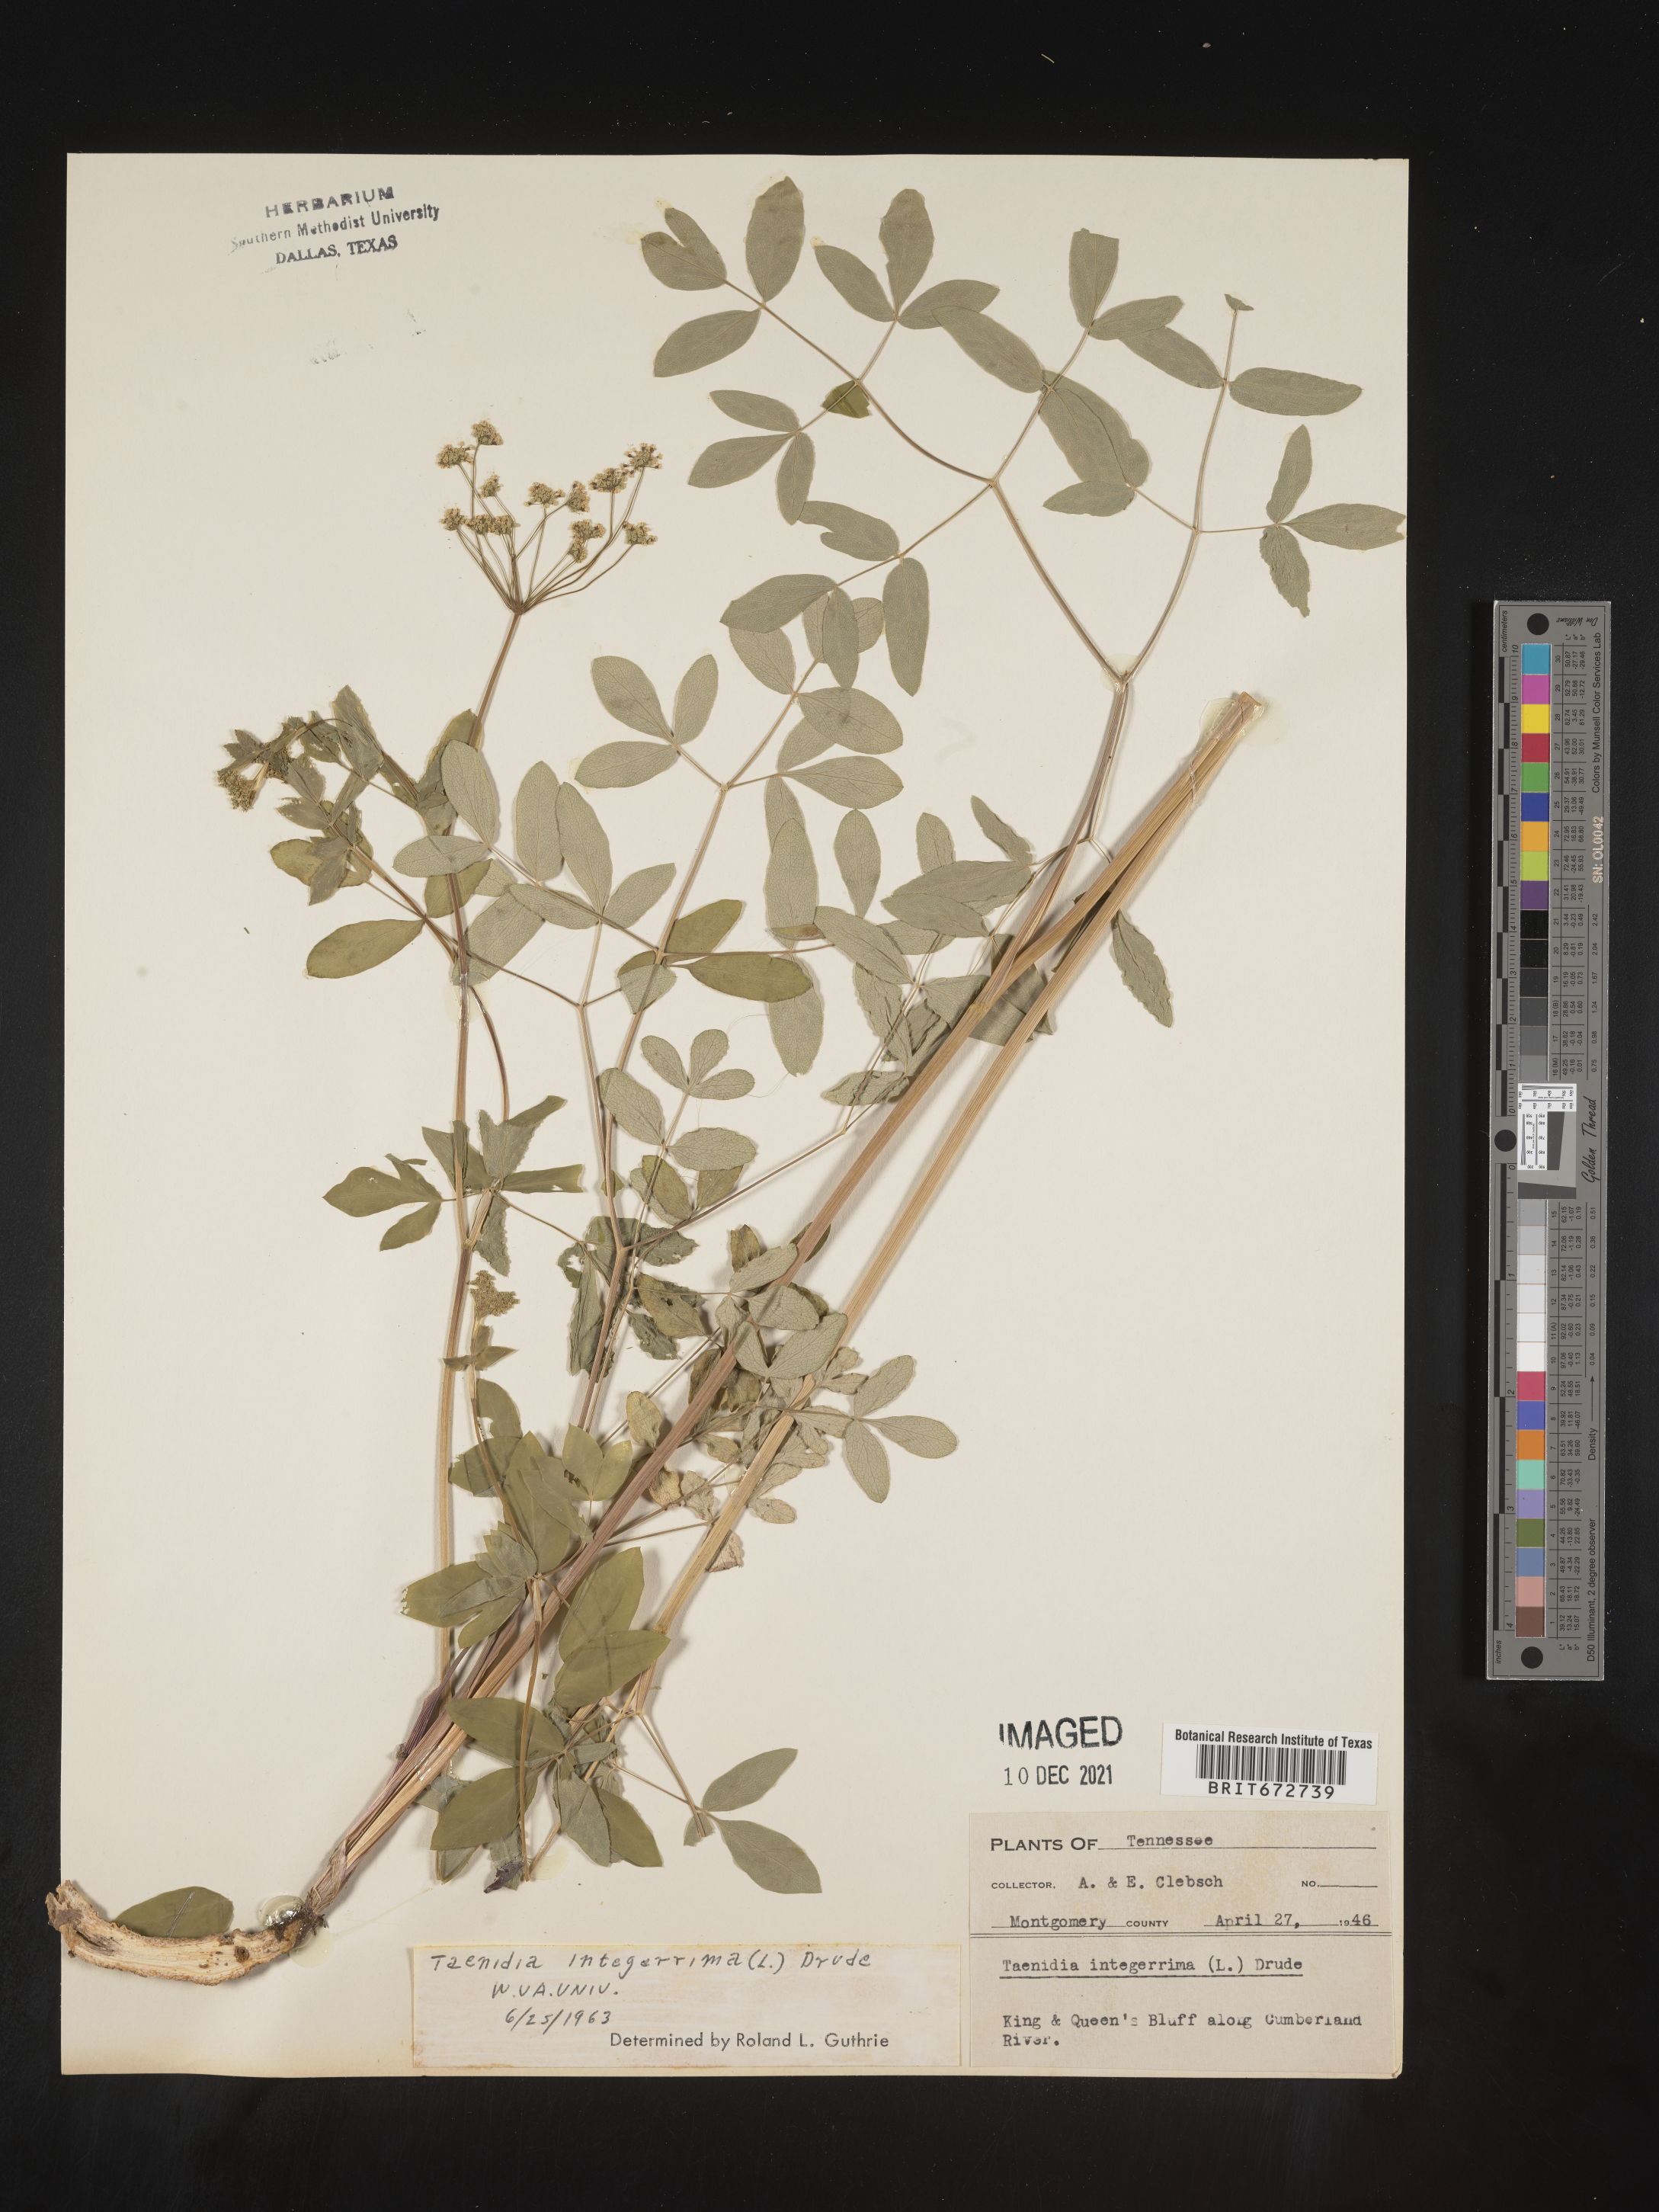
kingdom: Plantae
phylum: Tracheophyta
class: Magnoliopsida
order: Apiales
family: Apiaceae
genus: Taenidia
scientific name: Taenidia
